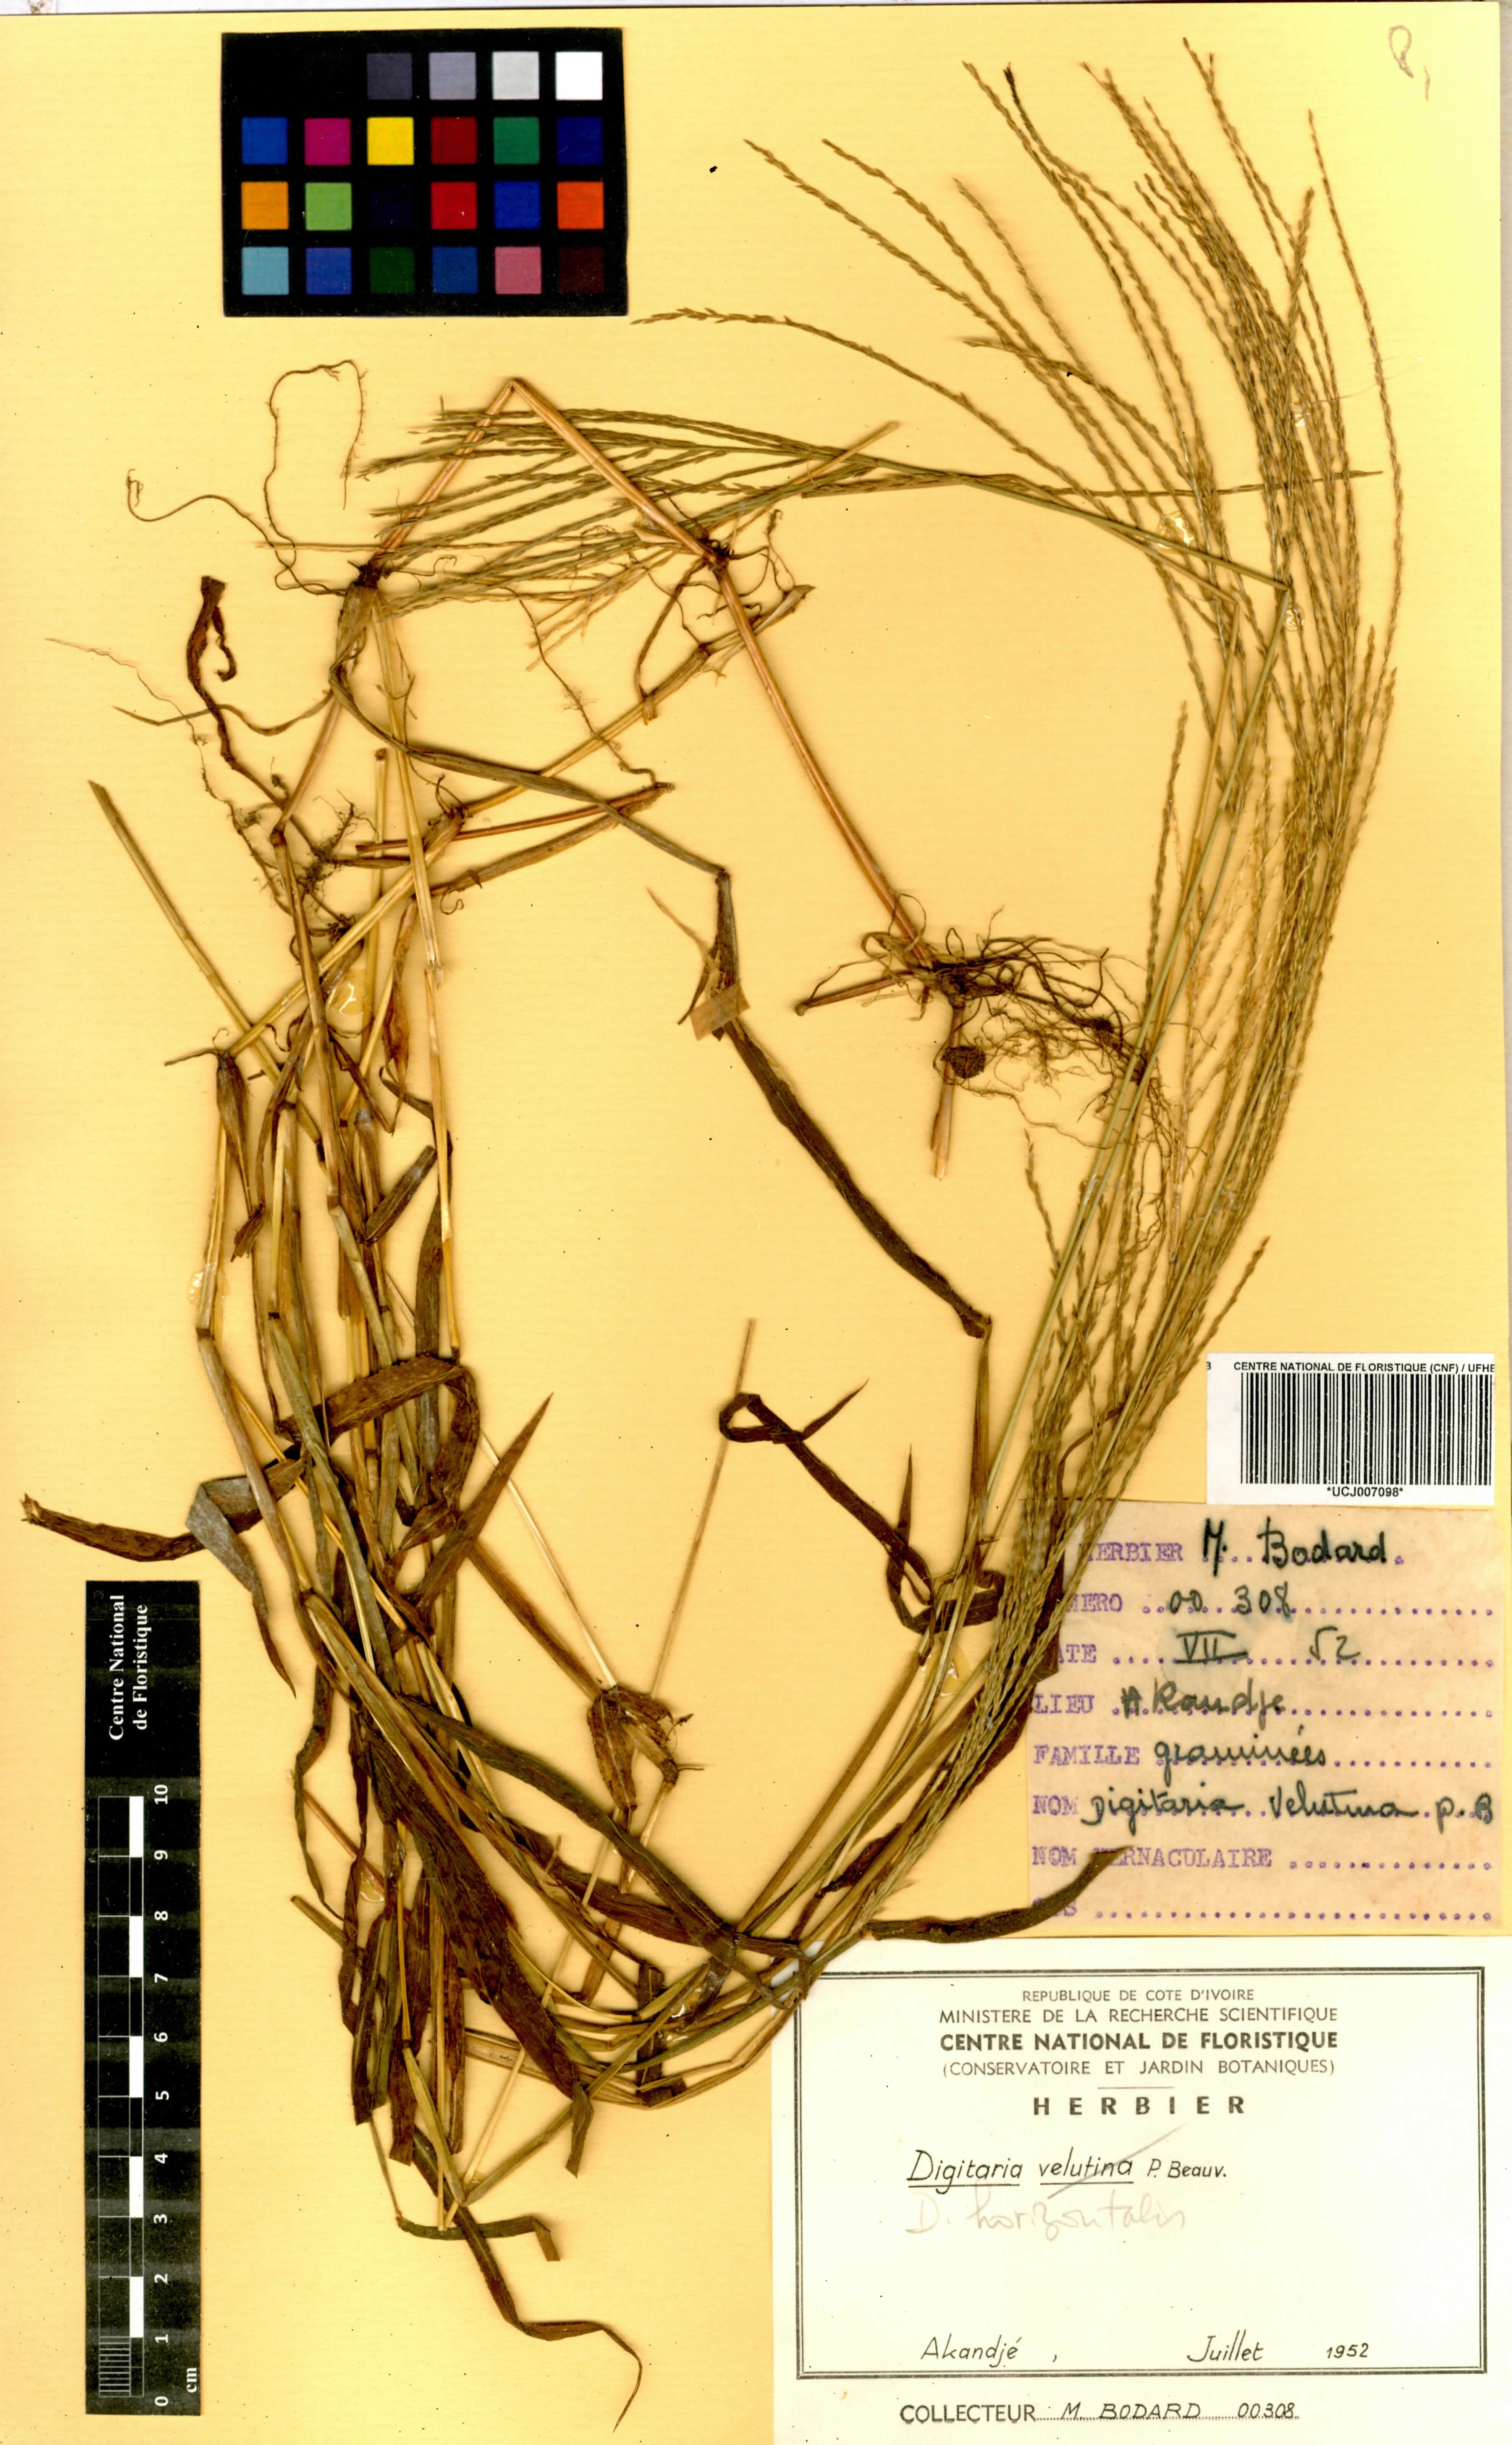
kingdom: Plantae
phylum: Tracheophyta
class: Liliopsida
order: Poales
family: Poaceae
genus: Digitaria
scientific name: Digitaria horizontalis
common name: Jamaican crabgrass
